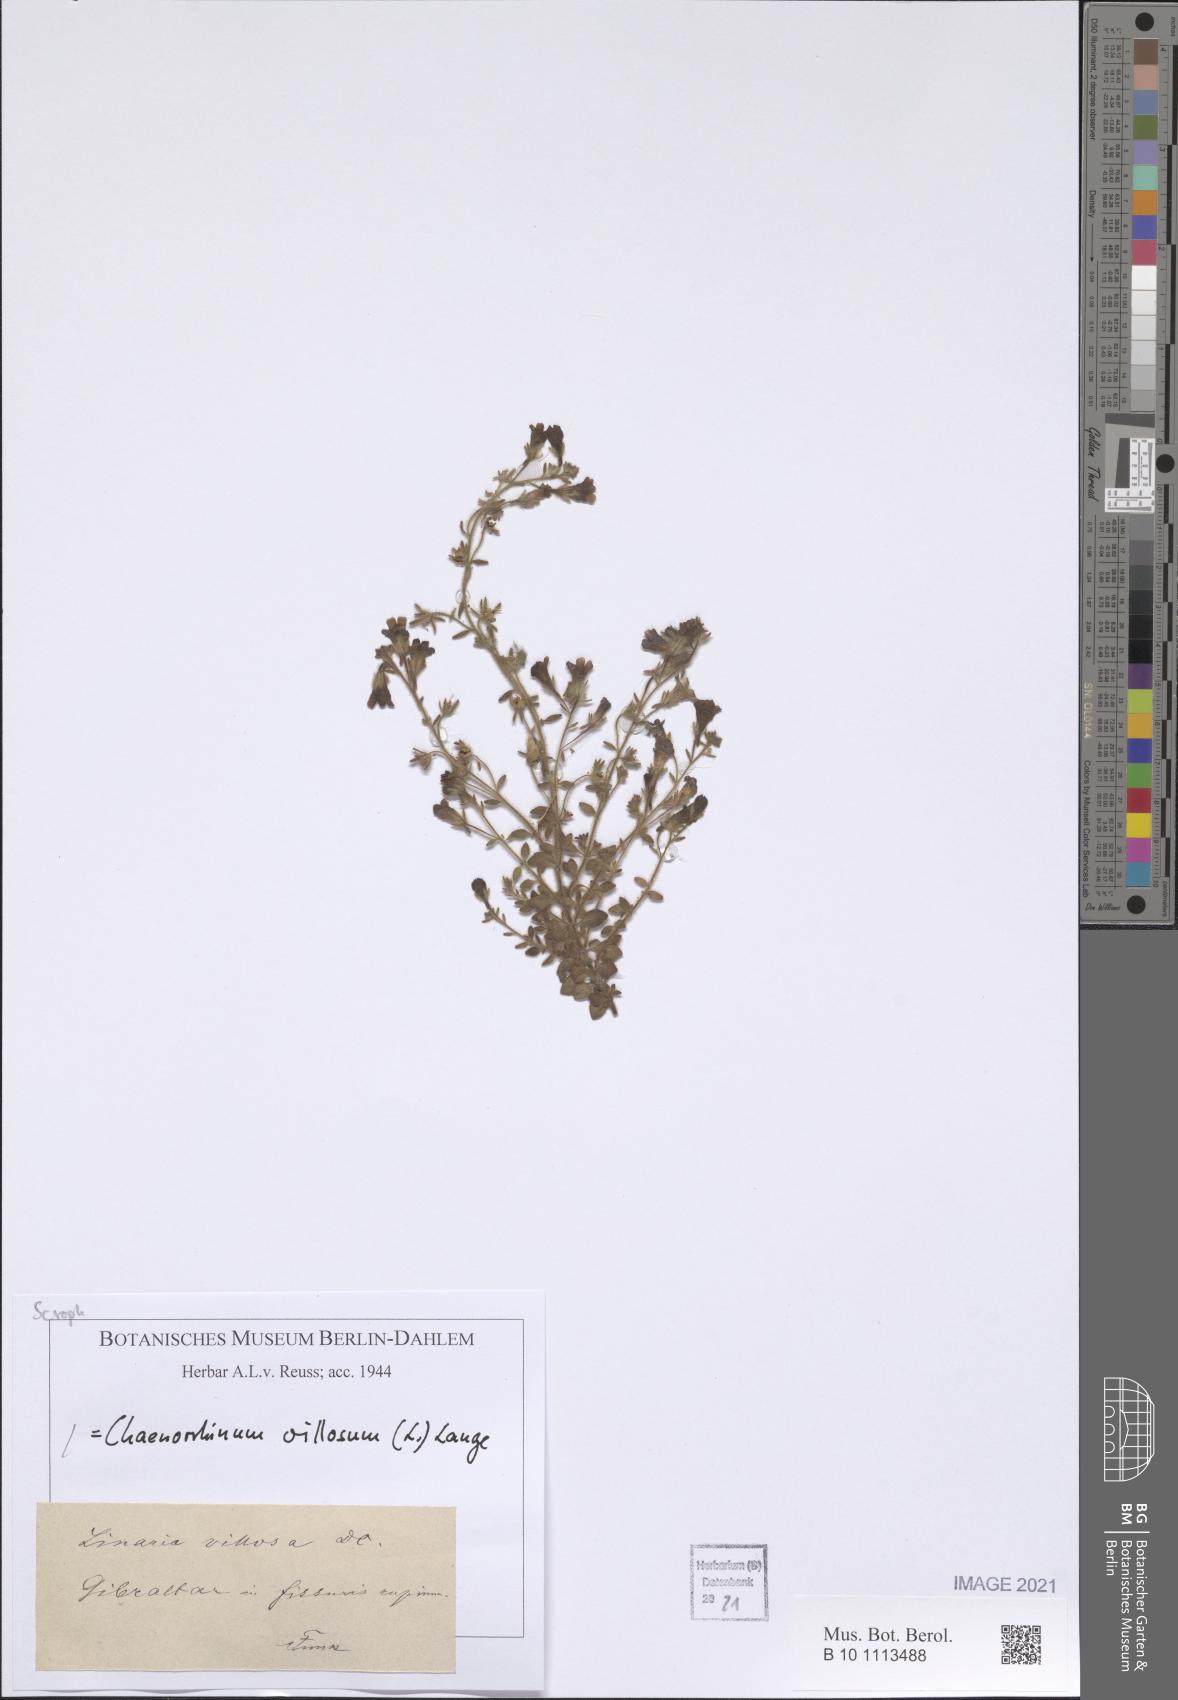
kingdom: Plantae
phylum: Tracheophyta
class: Magnoliopsida
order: Lamiales
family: Plantaginaceae
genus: Chaenorhinum
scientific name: Chaenorhinum villosum
